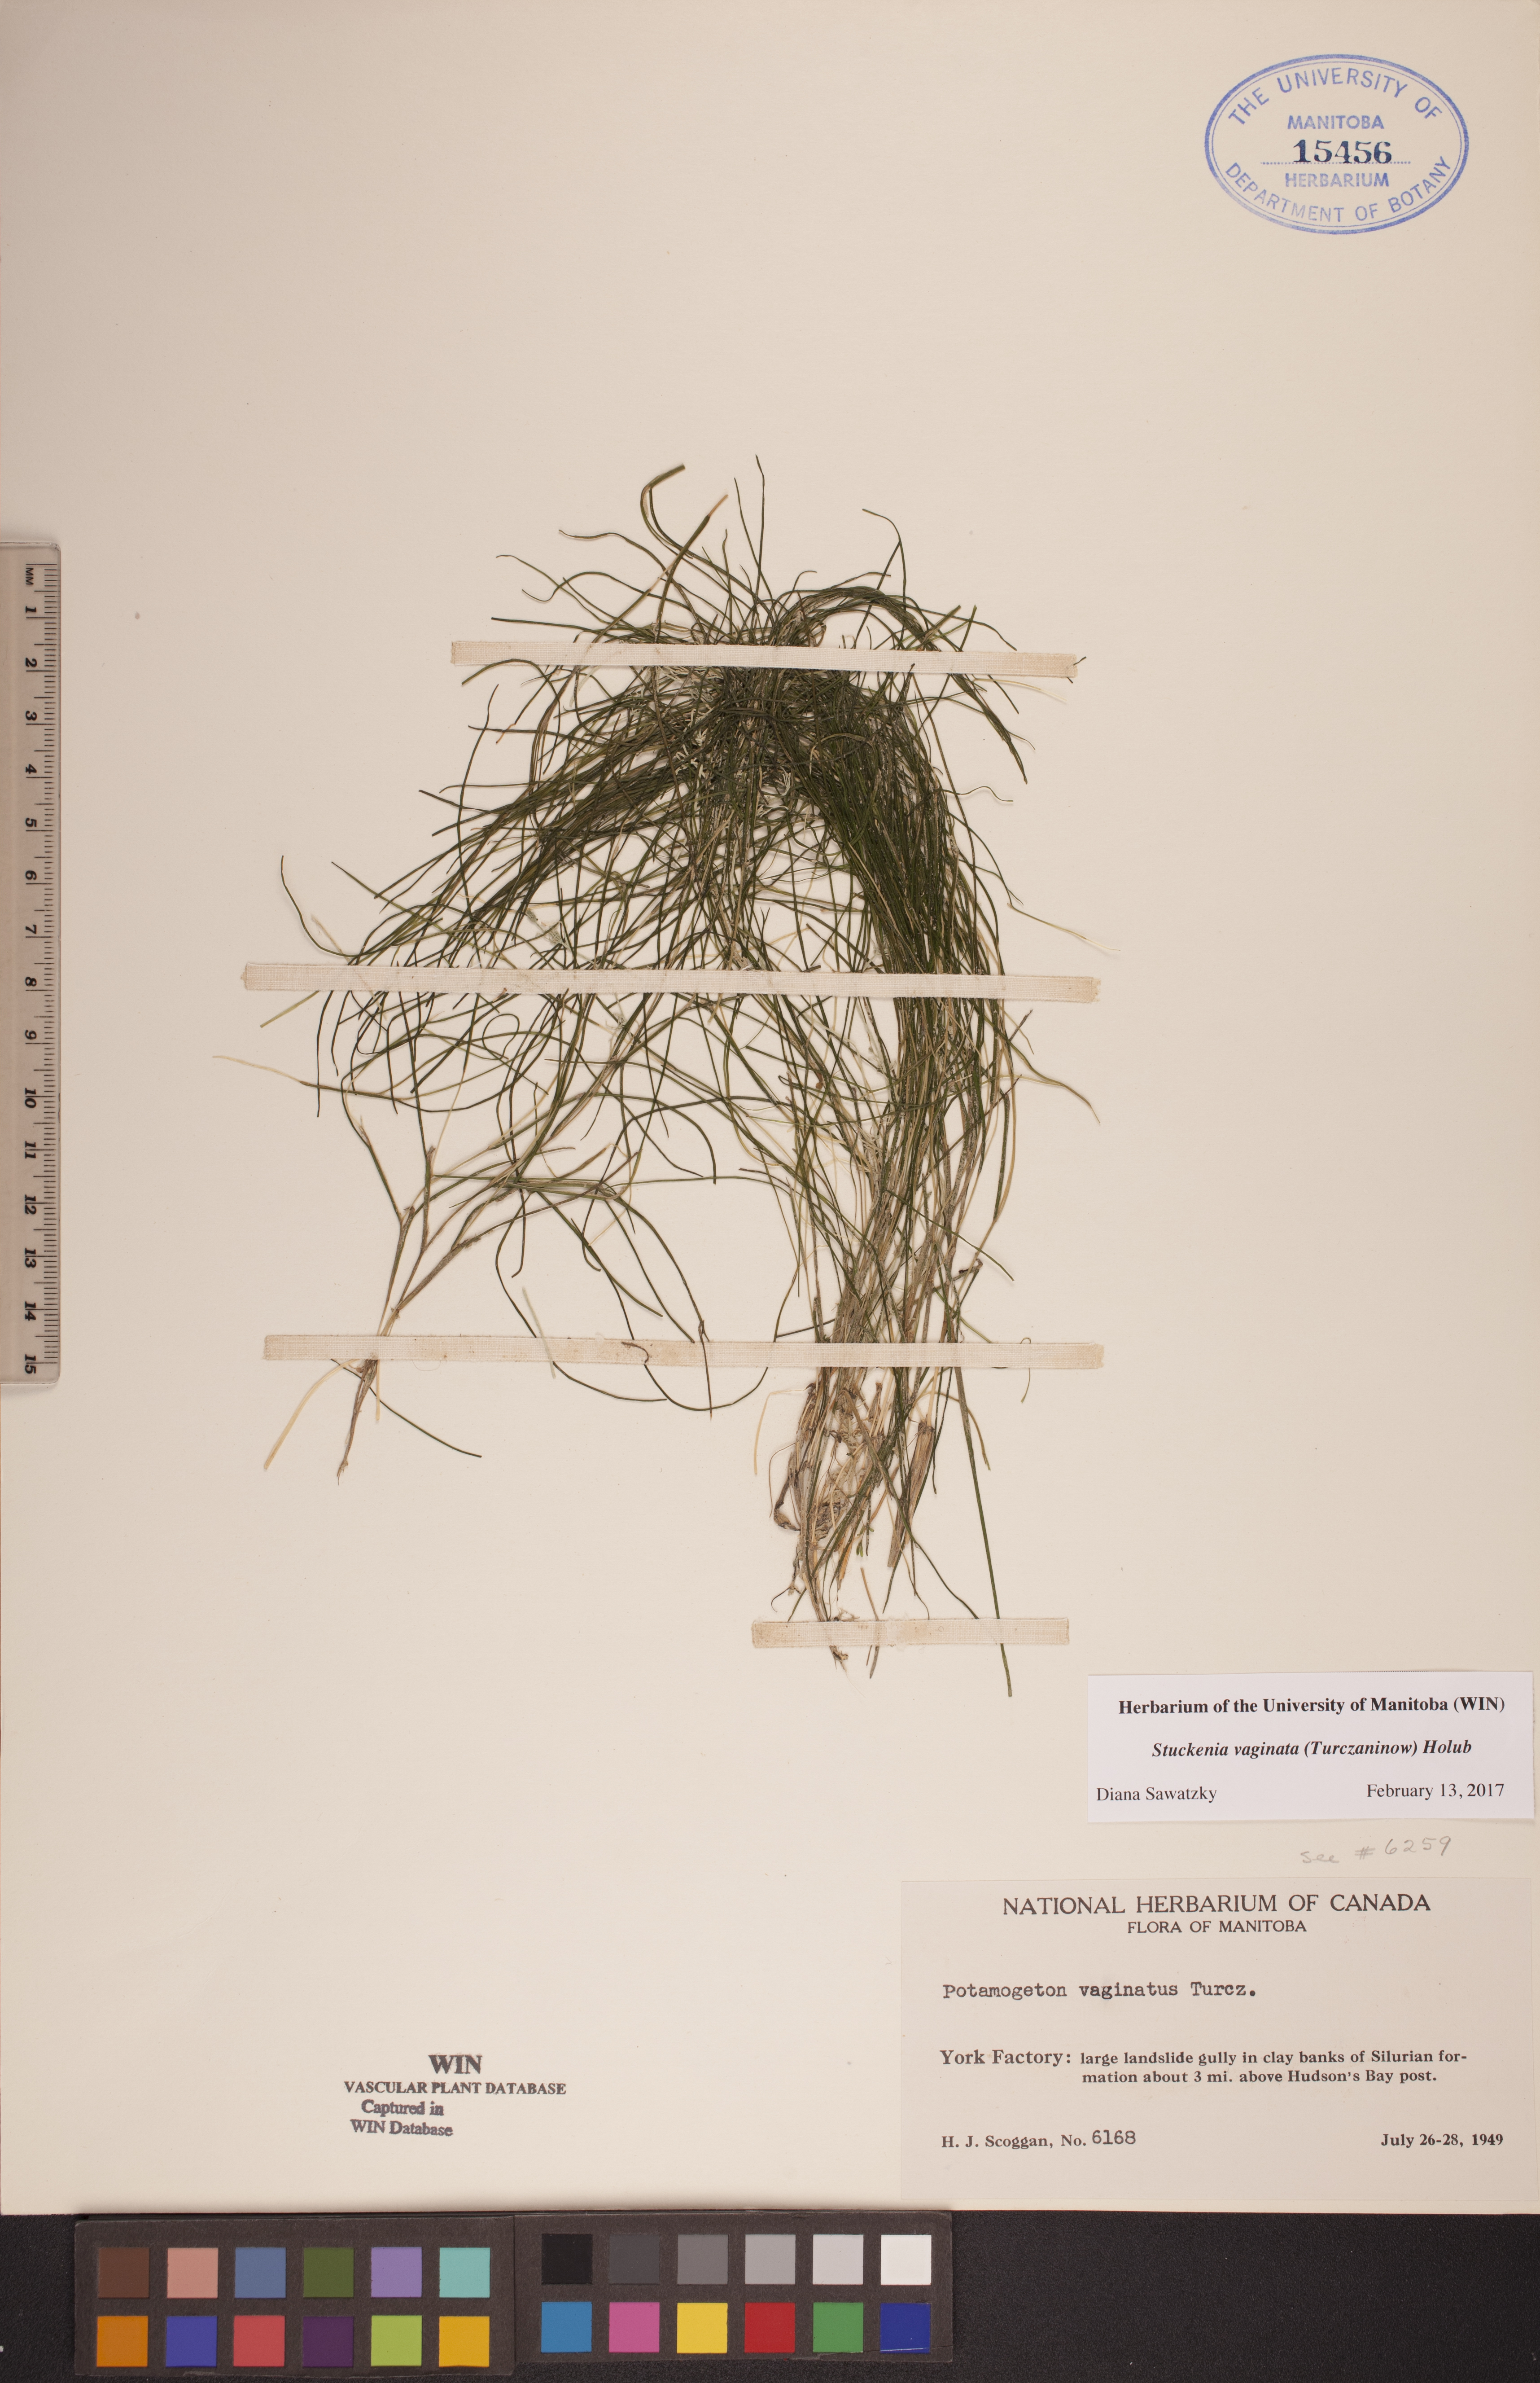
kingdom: Plantae
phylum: Tracheophyta
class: Liliopsida
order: Alismatales
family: Potamogetonaceae
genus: Stuckenia
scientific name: Stuckenia vaginata
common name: Big-sheathed pondweed
